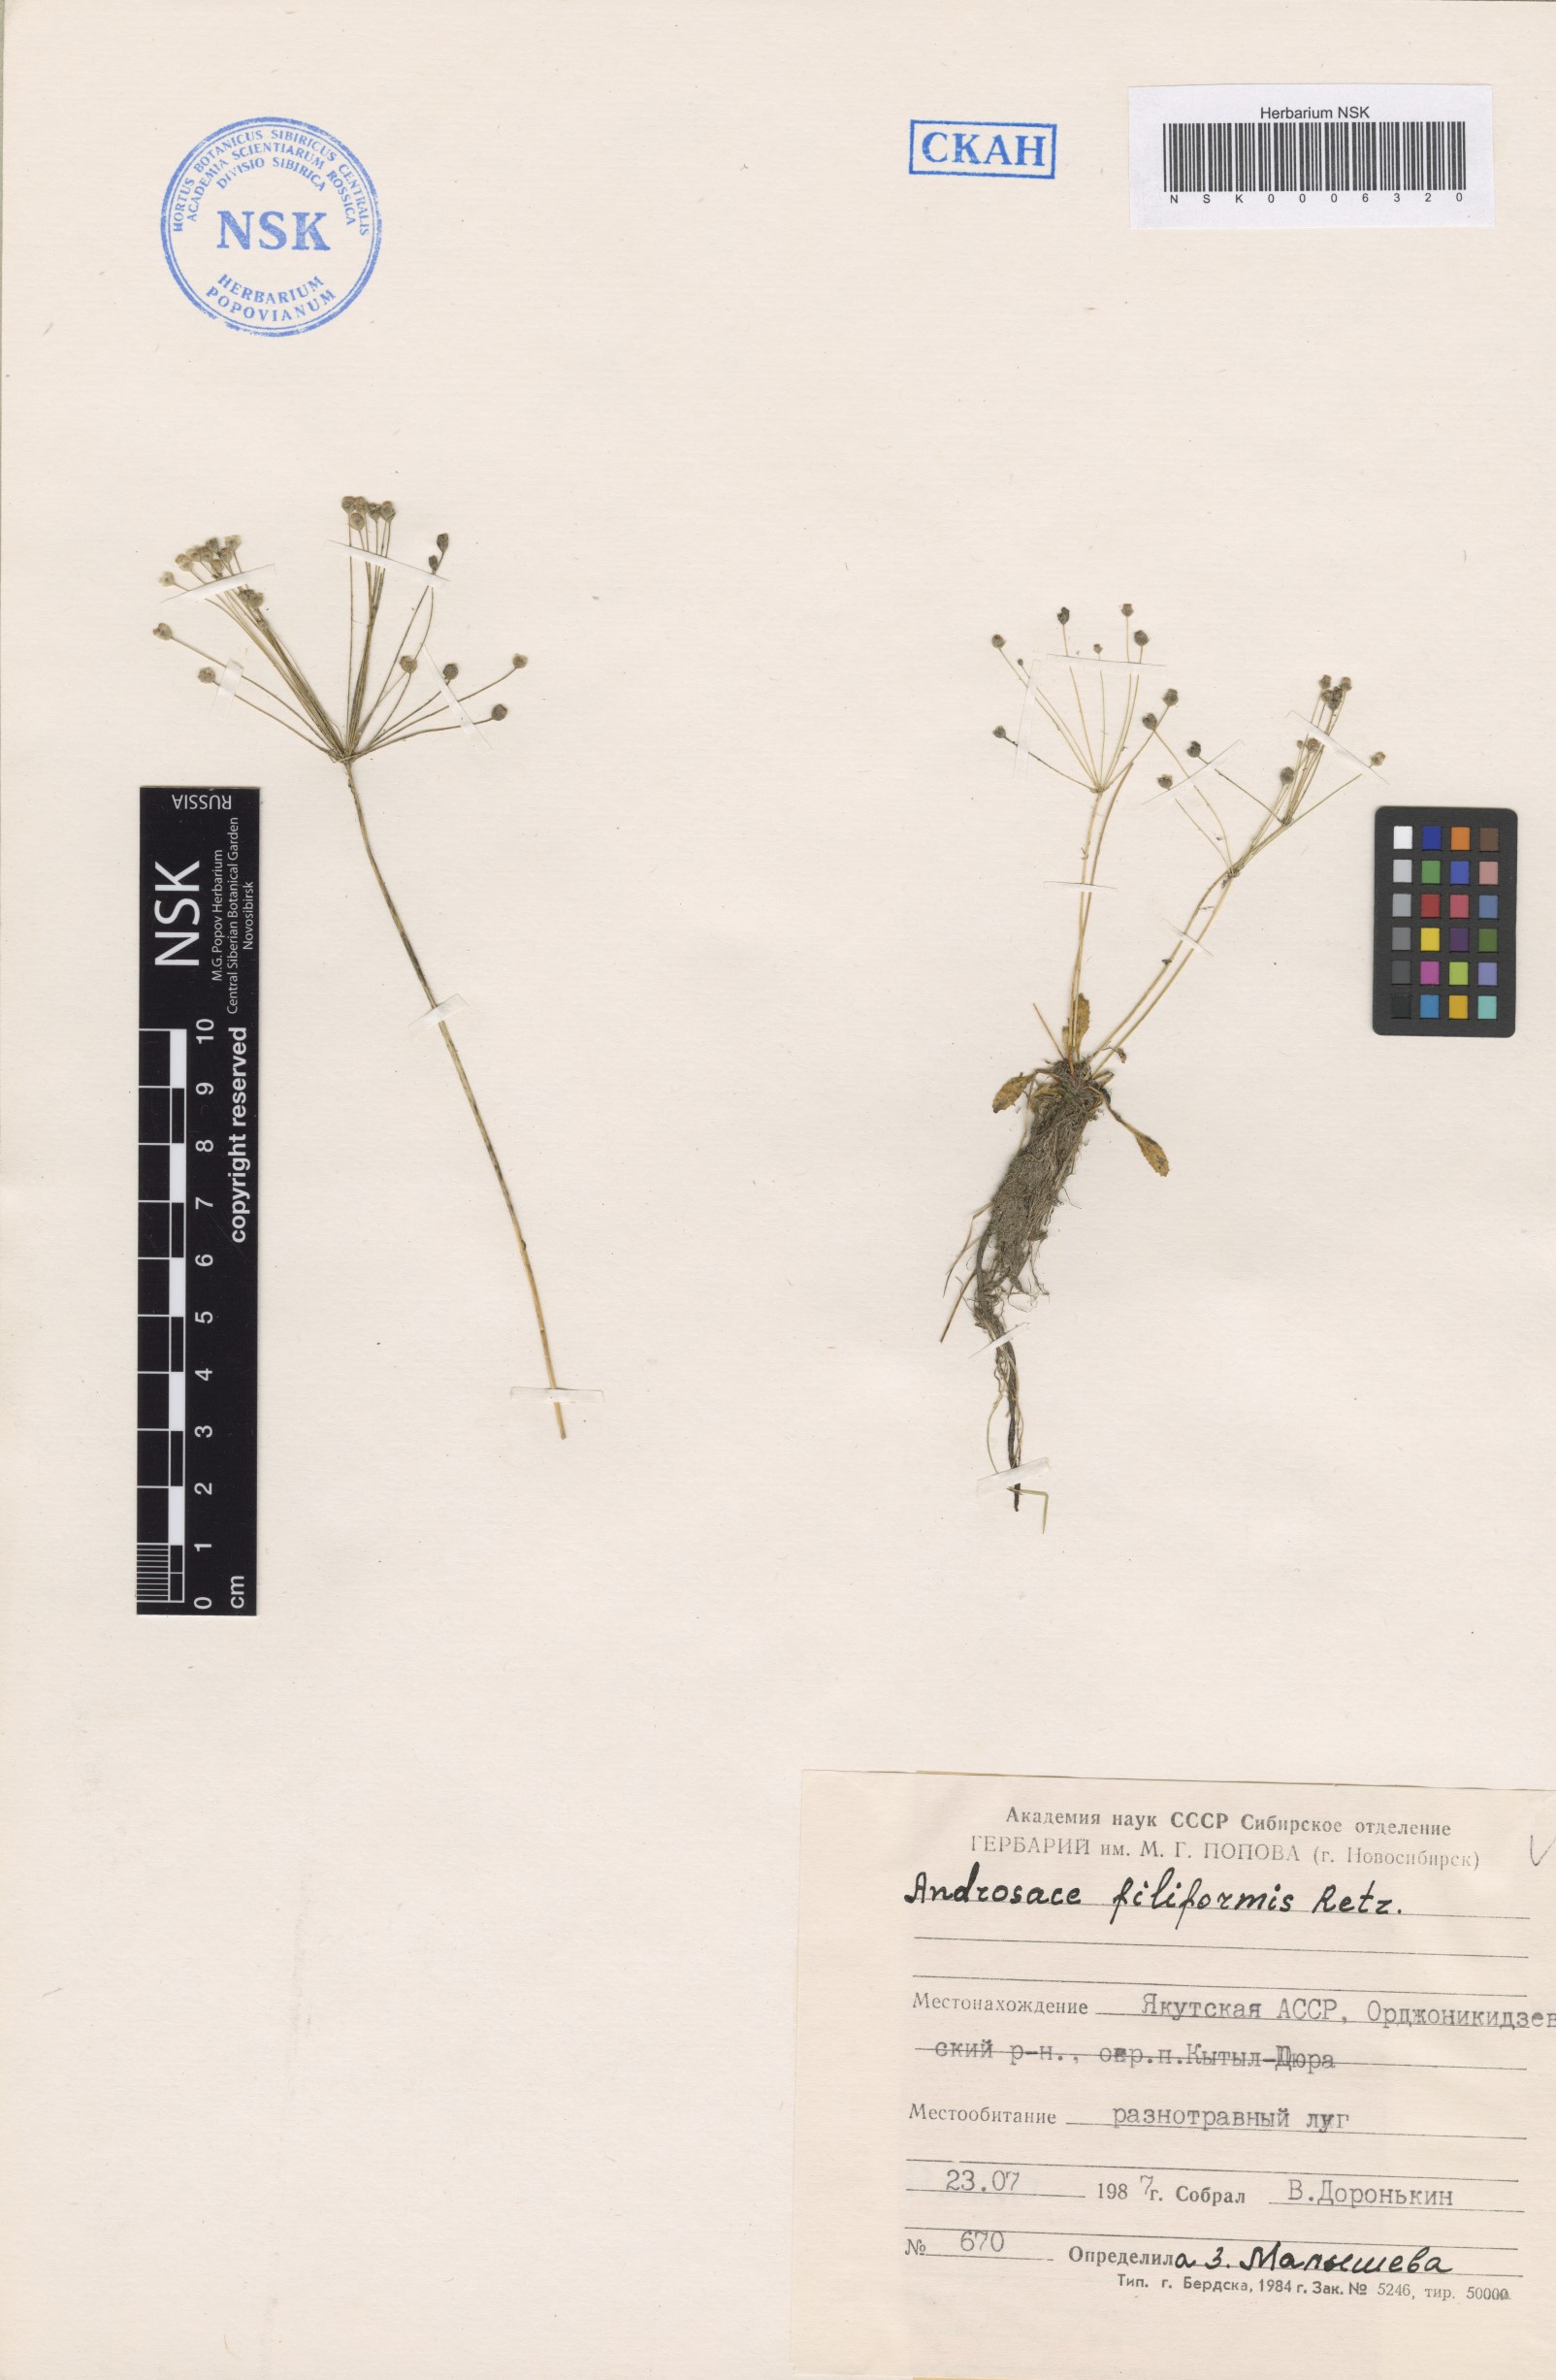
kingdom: Plantae
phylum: Tracheophyta
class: Magnoliopsida
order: Ericales
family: Primulaceae
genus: Androsace
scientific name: Androsace filiformis
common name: Filiform rock jasmine
